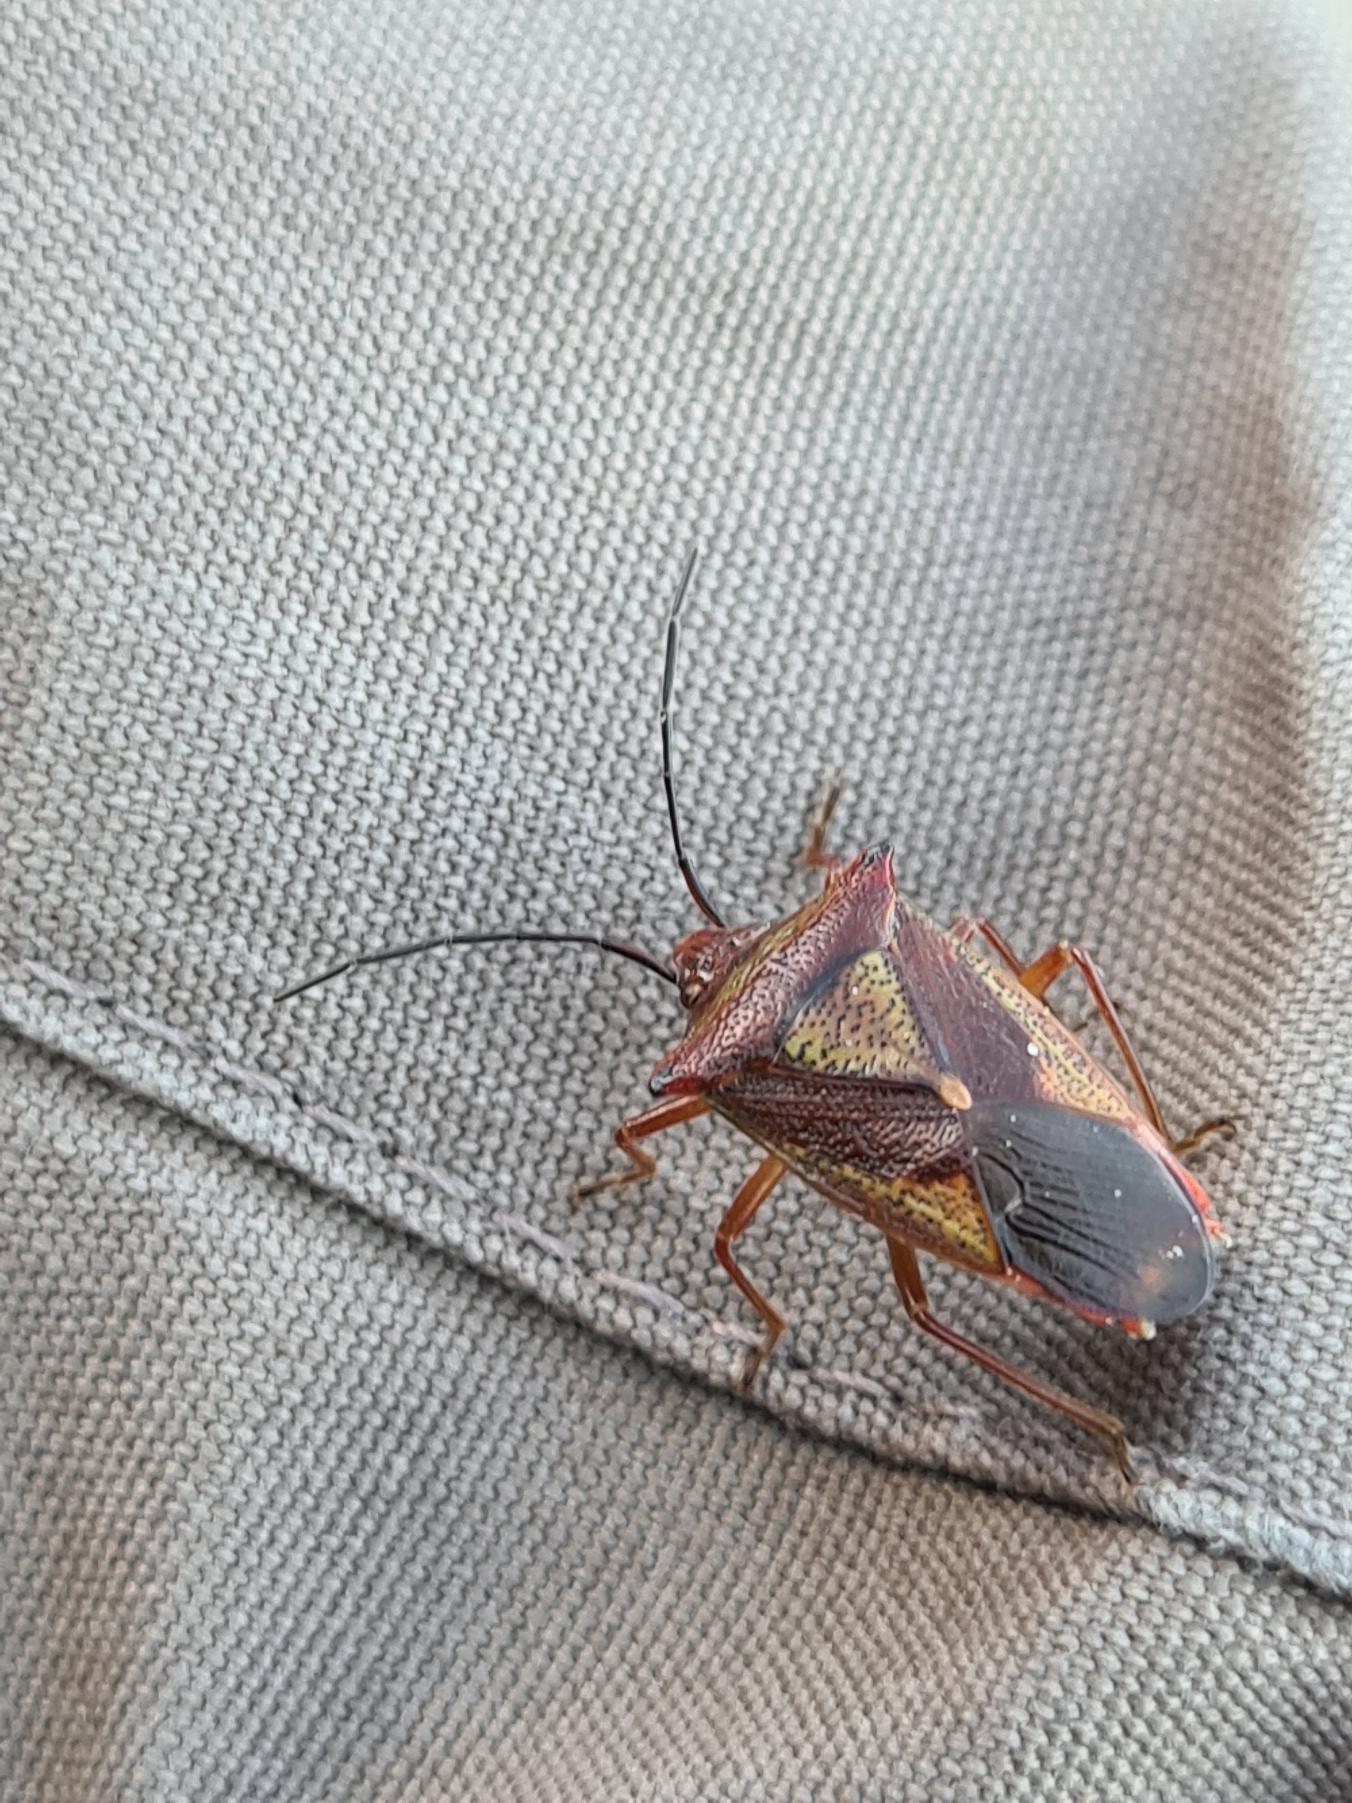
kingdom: Animalia
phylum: Arthropoda
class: Insecta
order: Hemiptera
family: Acanthosomatidae
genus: Acanthosoma
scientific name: Acanthosoma haemorrhoidale
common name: Stor løvtæge
